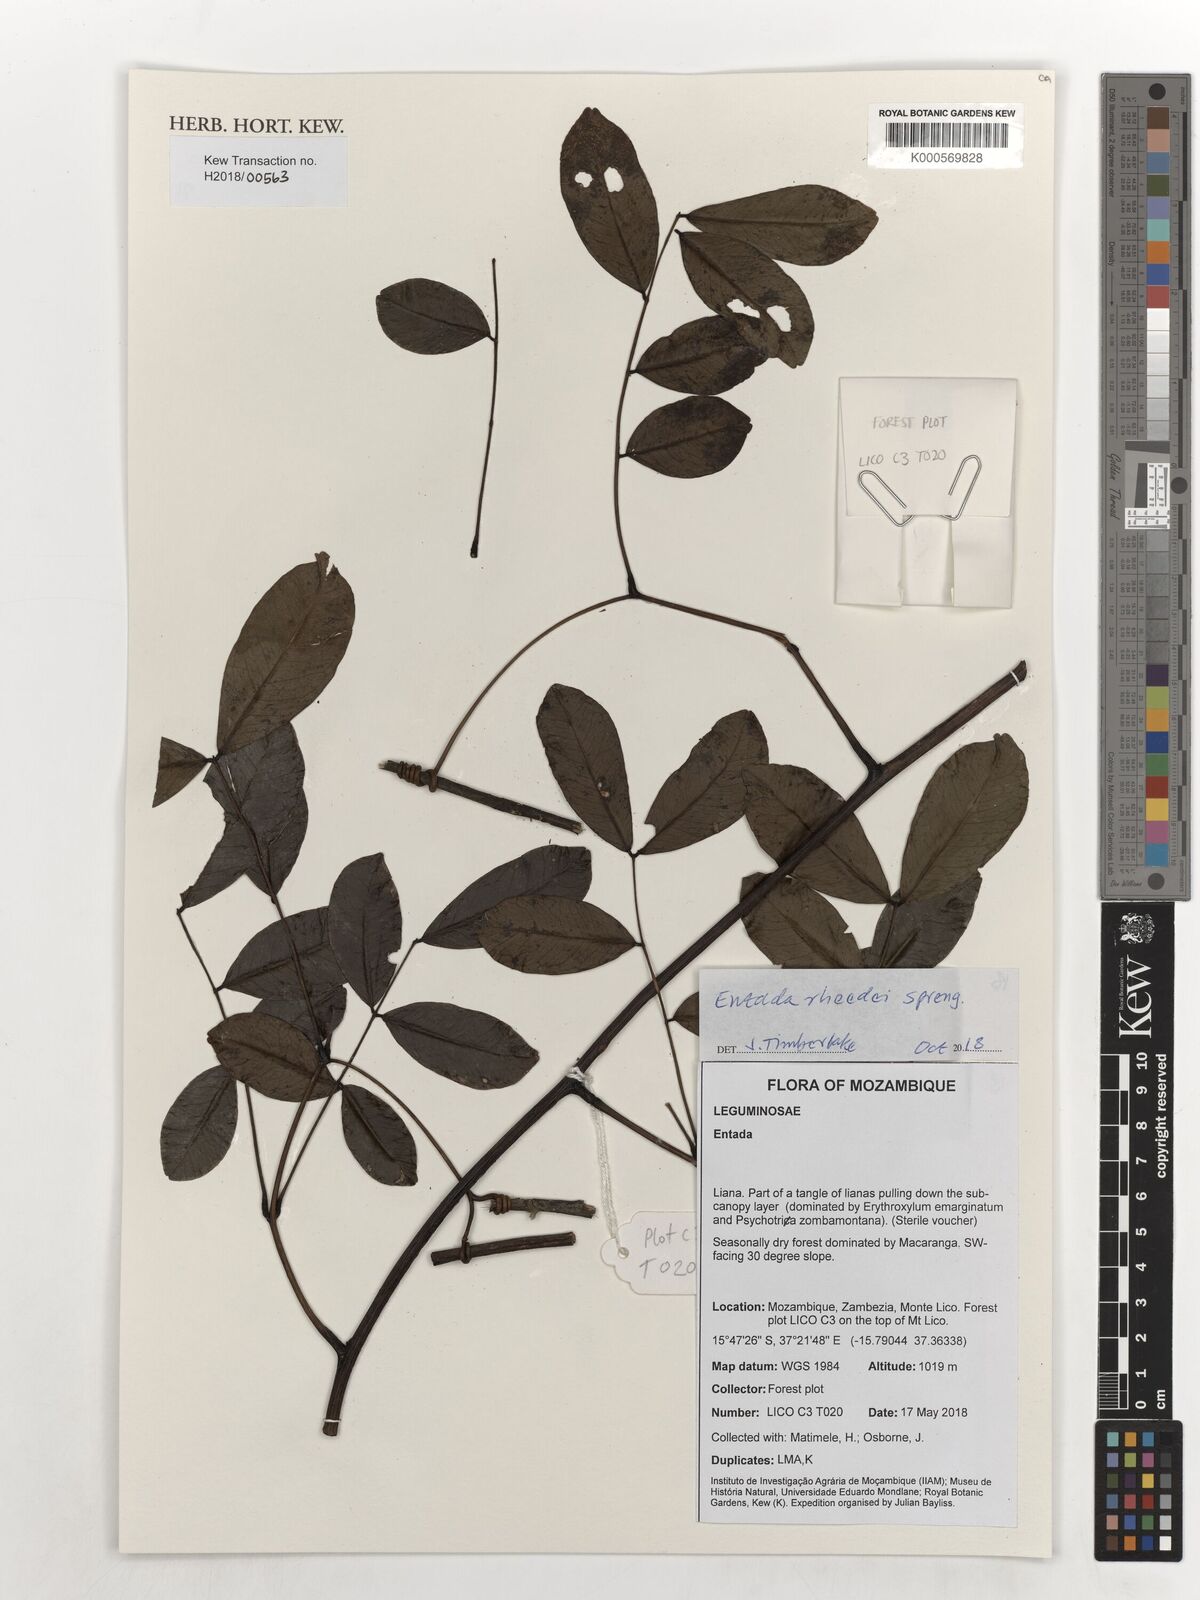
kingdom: Plantae
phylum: Tracheophyta
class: Magnoliopsida
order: Fabales
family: Fabaceae
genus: Entada
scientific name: Entada rheedei
